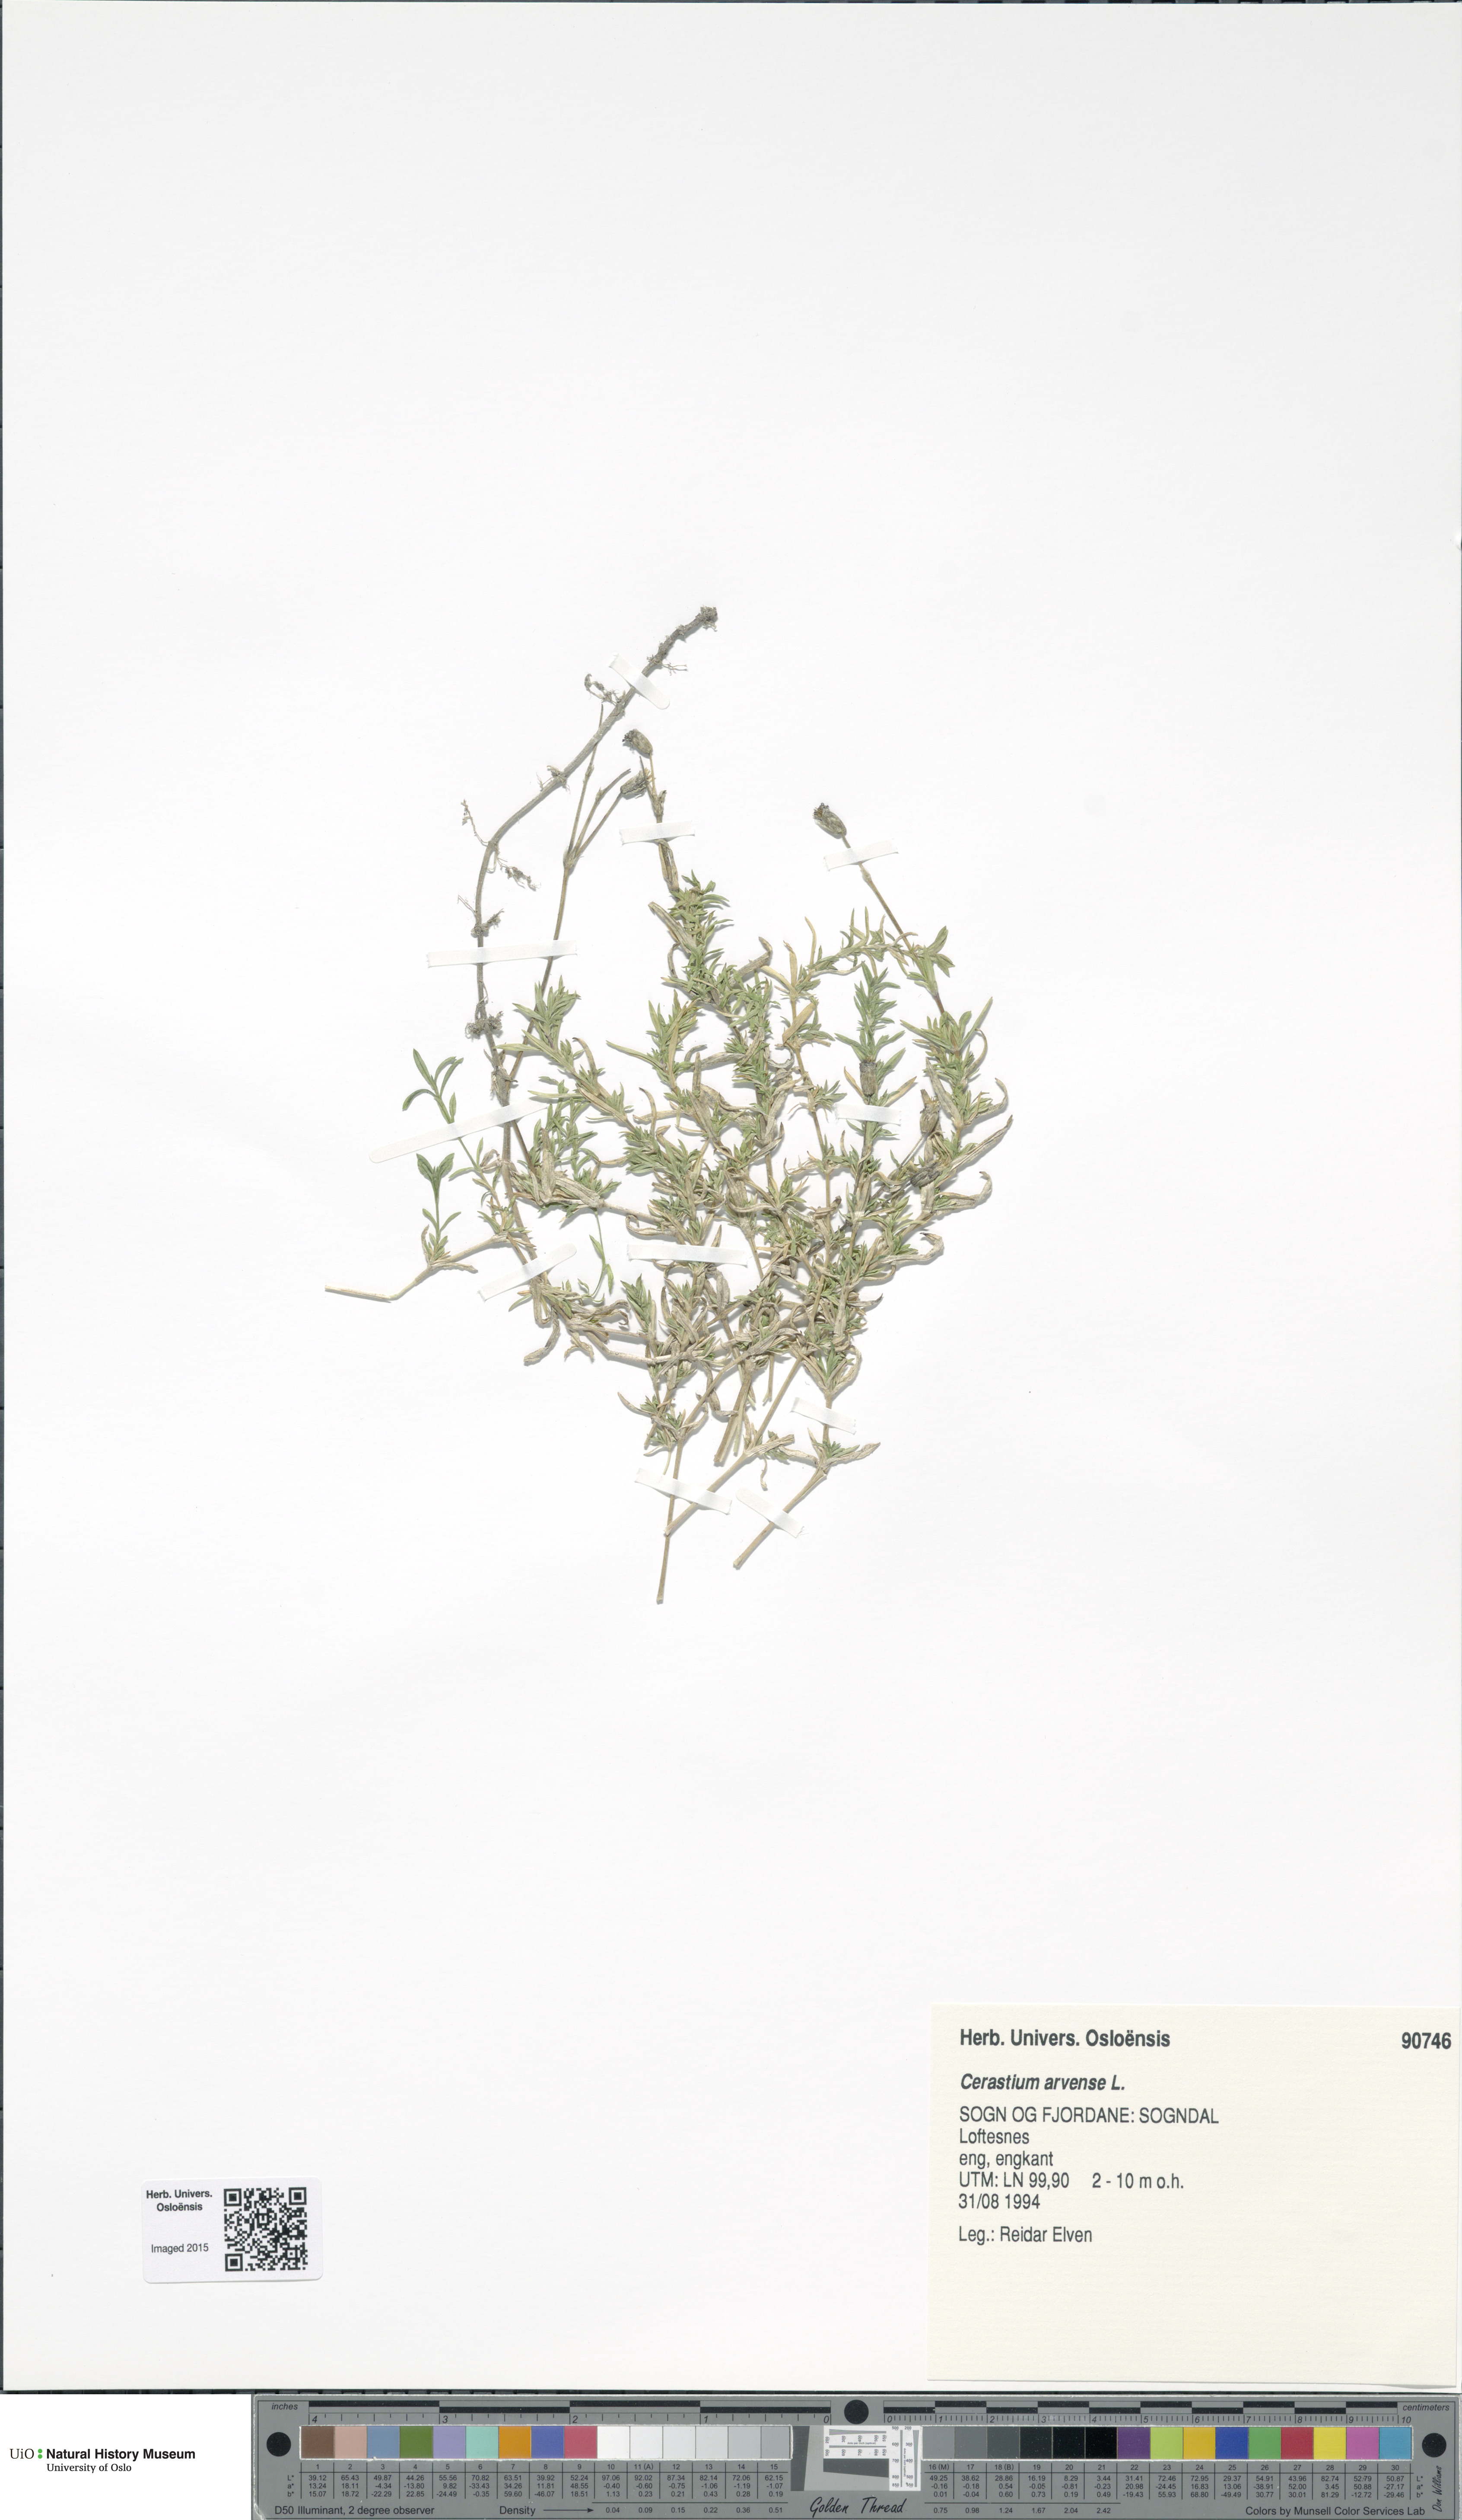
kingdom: Plantae
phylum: Tracheophyta
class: Magnoliopsida
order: Caryophyllales
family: Caryophyllaceae
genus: Cerastium
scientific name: Cerastium arvense
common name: Field mouse-ear
